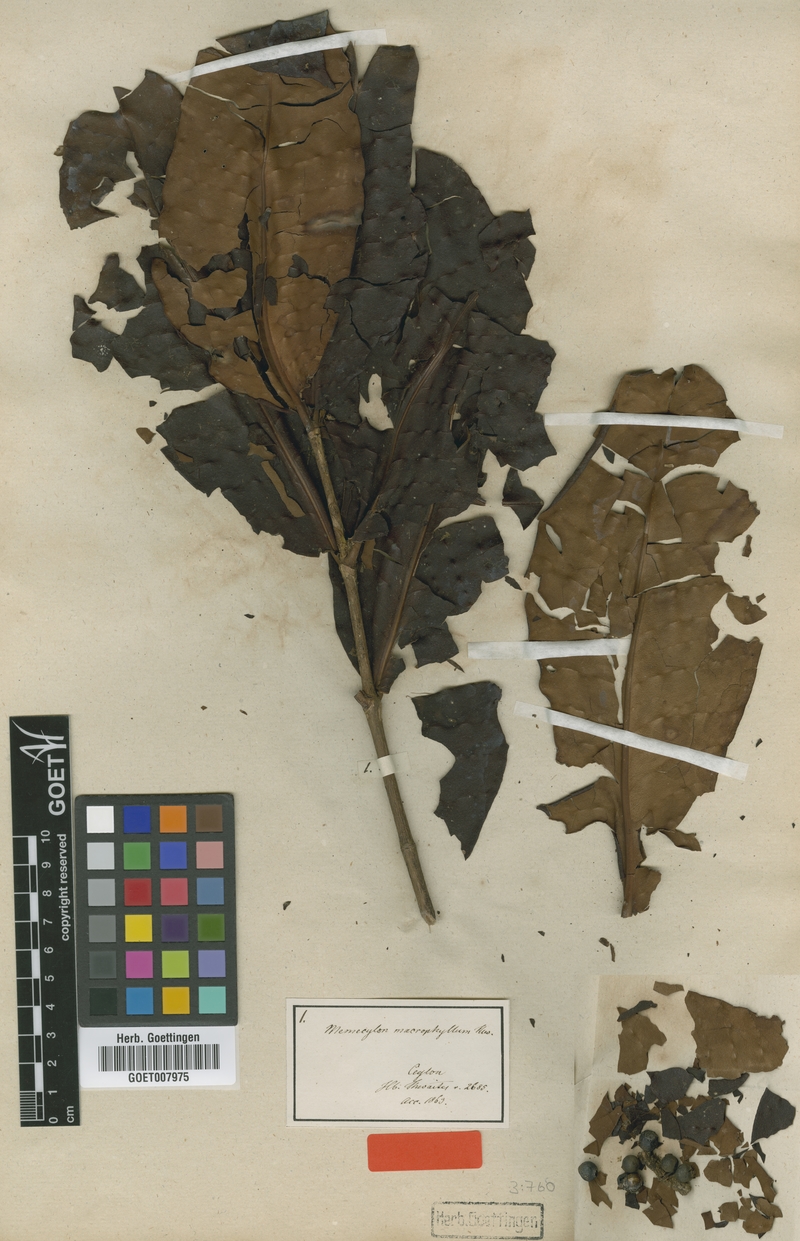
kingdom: Plantae
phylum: Tracheophyta
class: Magnoliopsida
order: Myrtales
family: Melastomataceae
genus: Memecylon
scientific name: Memecylon macrophyllum
